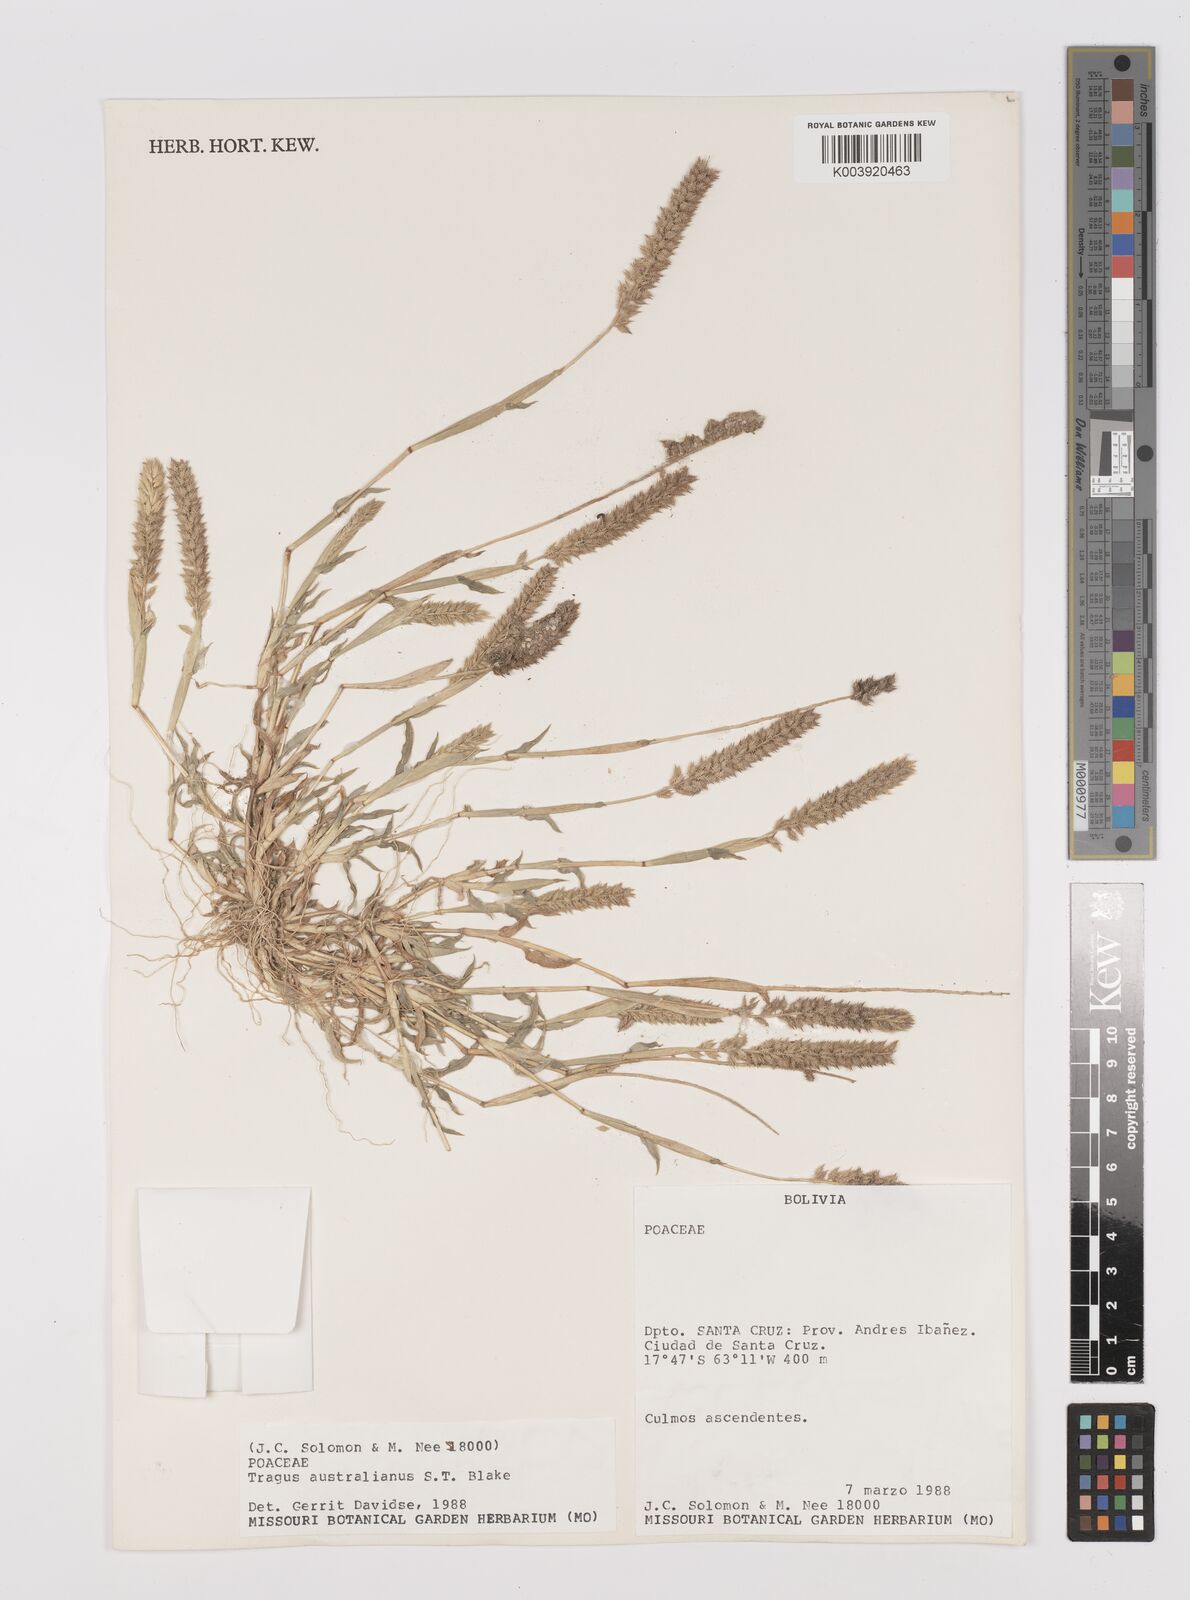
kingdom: Plantae
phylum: Tracheophyta
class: Liliopsida
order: Poales
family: Poaceae
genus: Tragus
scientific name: Tragus australianus
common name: Australian bur-grass
